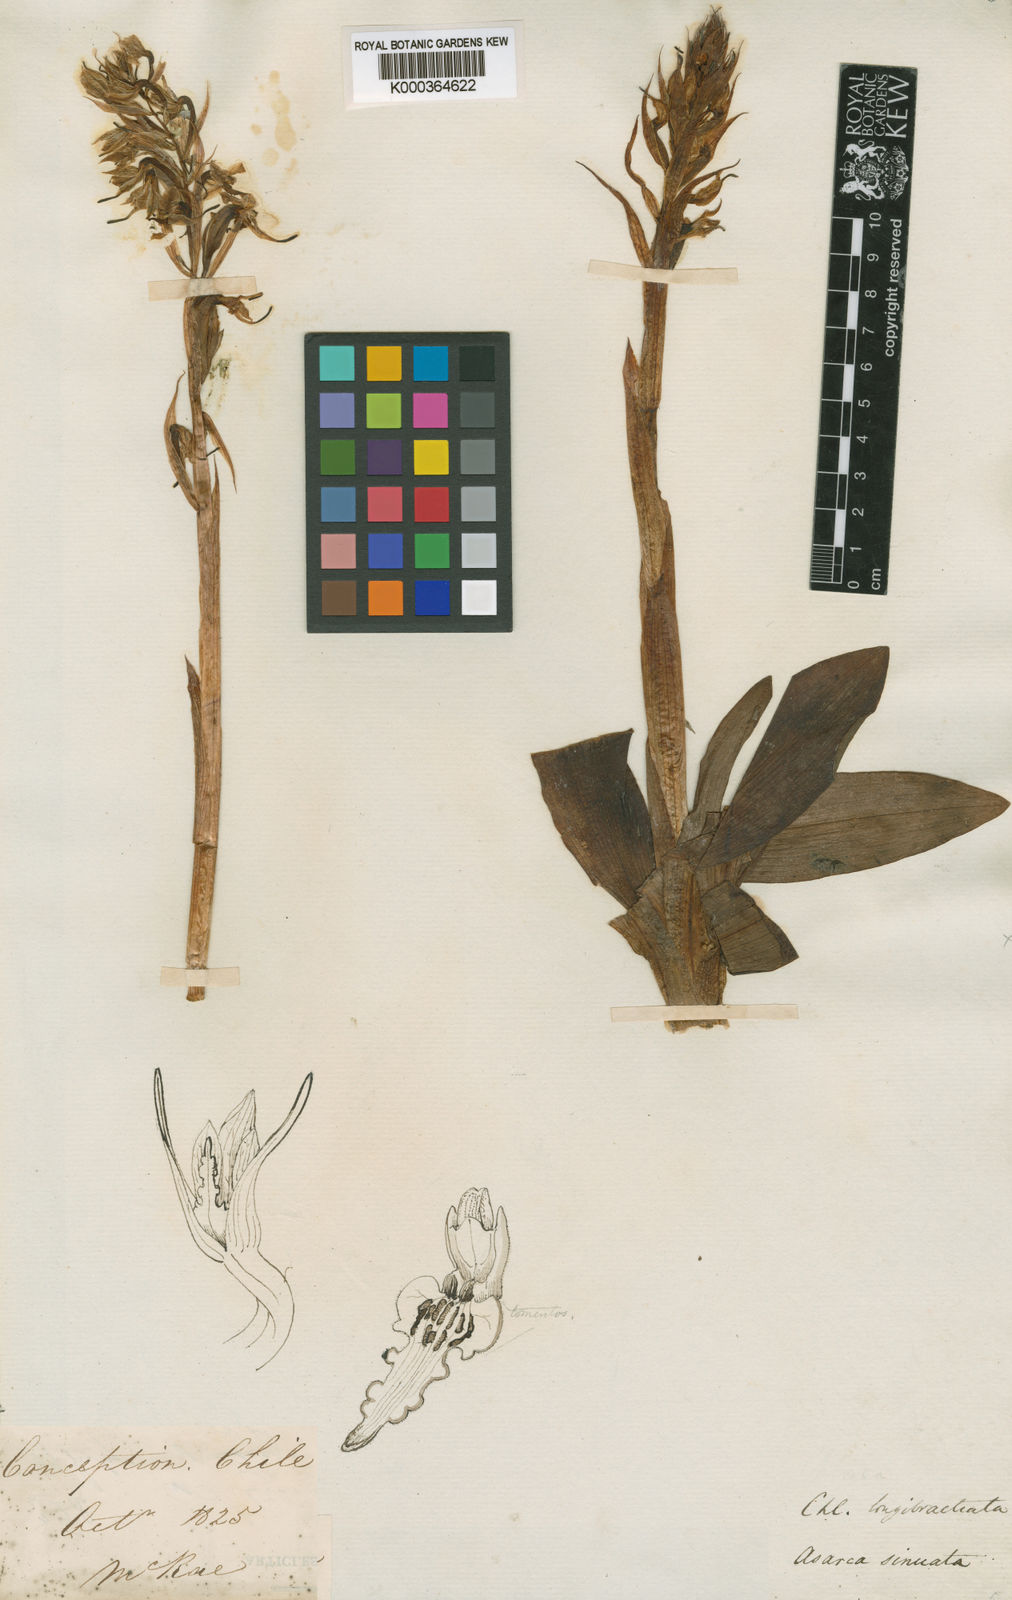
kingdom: Plantae
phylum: Tracheophyta
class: Liliopsida
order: Asparagales
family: Orchidaceae
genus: Gavilea
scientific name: Gavilea longibracteata
